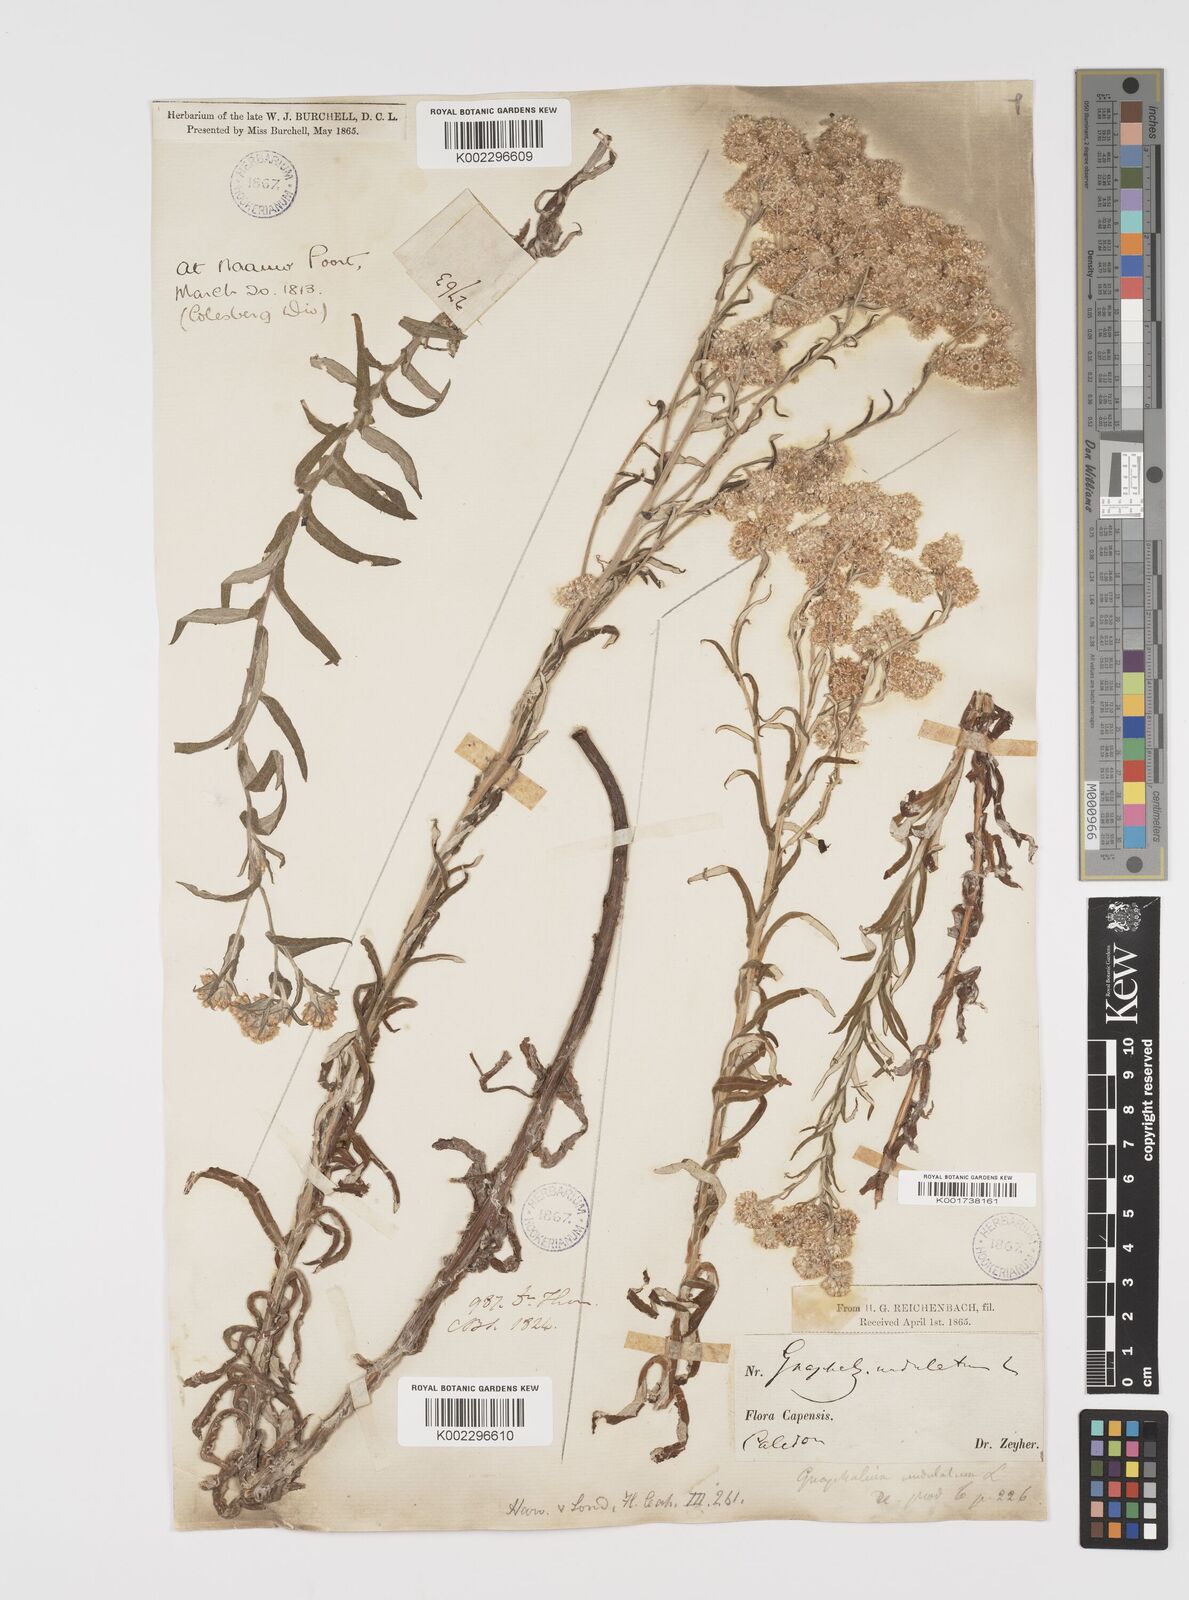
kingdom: Plantae
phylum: Tracheophyta
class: Magnoliopsida
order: Asterales
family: Asteraceae
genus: Pseudognaphalium
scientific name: Pseudognaphalium undulatum
